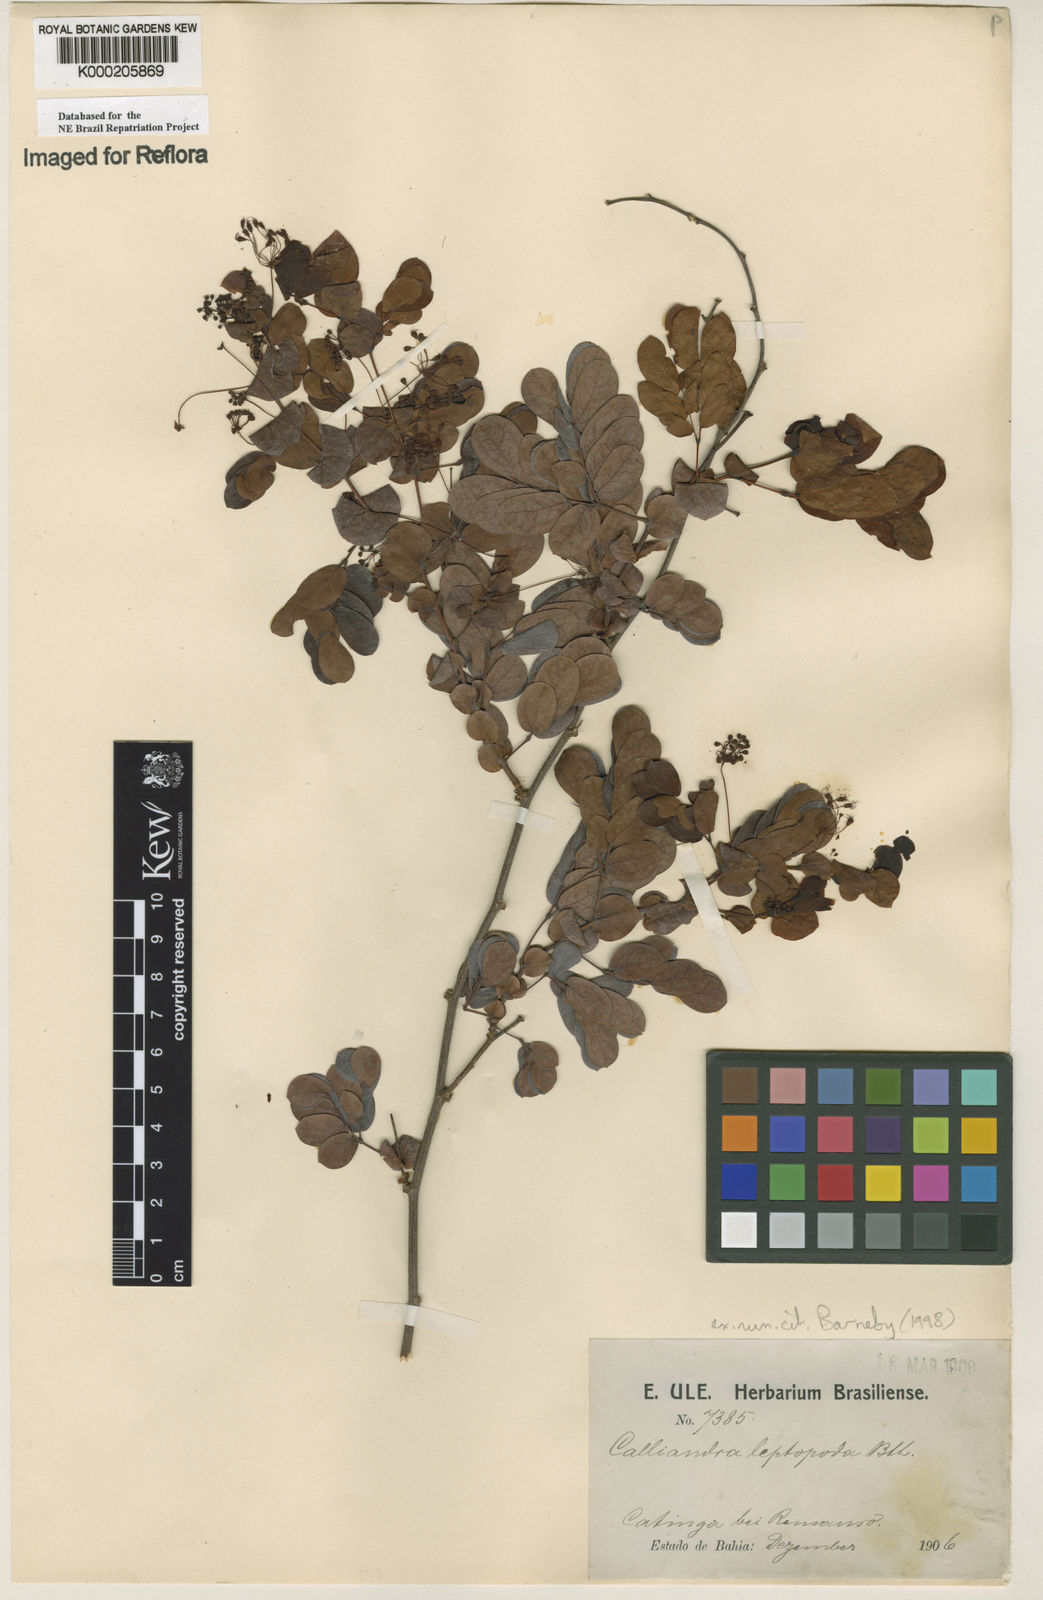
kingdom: Plantae
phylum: Tracheophyta
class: Magnoliopsida
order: Fabales
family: Fabaceae
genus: Calliandra
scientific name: Calliandra leptopoda
